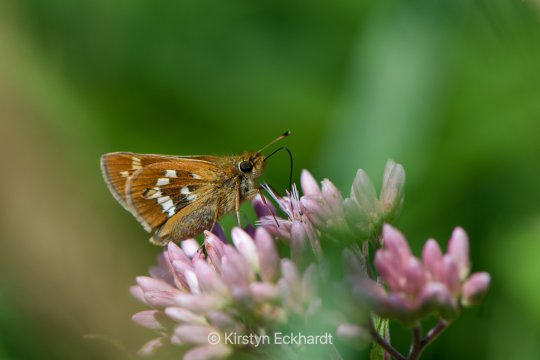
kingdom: Animalia
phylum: Arthropoda
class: Insecta
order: Lepidoptera
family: Hesperiidae
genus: Hesperia
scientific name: Hesperia leonardus
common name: Leonard's Skipper
